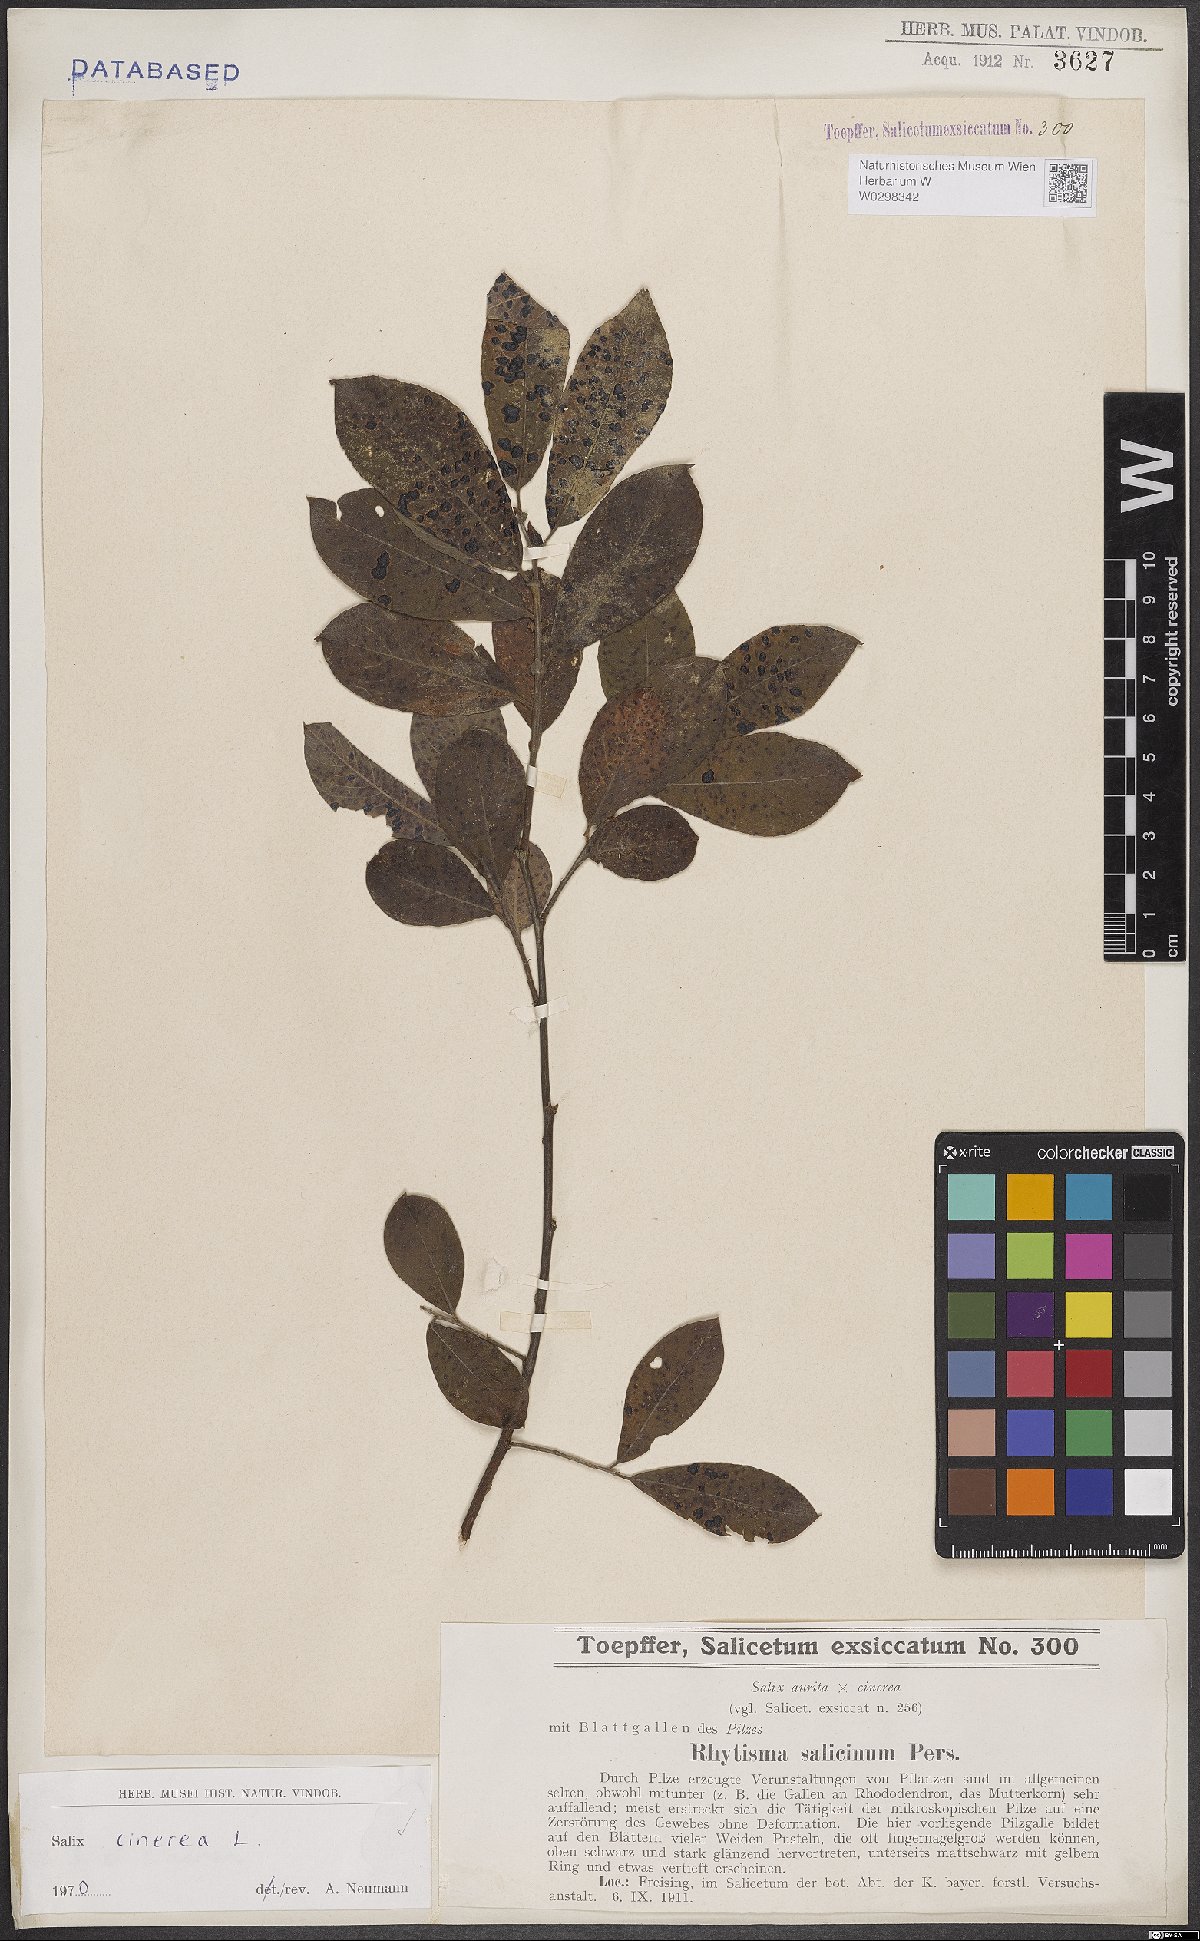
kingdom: Plantae
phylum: Tracheophyta
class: Magnoliopsida
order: Malpighiales
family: Salicaceae
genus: Salix
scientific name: Salix cinerea
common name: Common sallow
